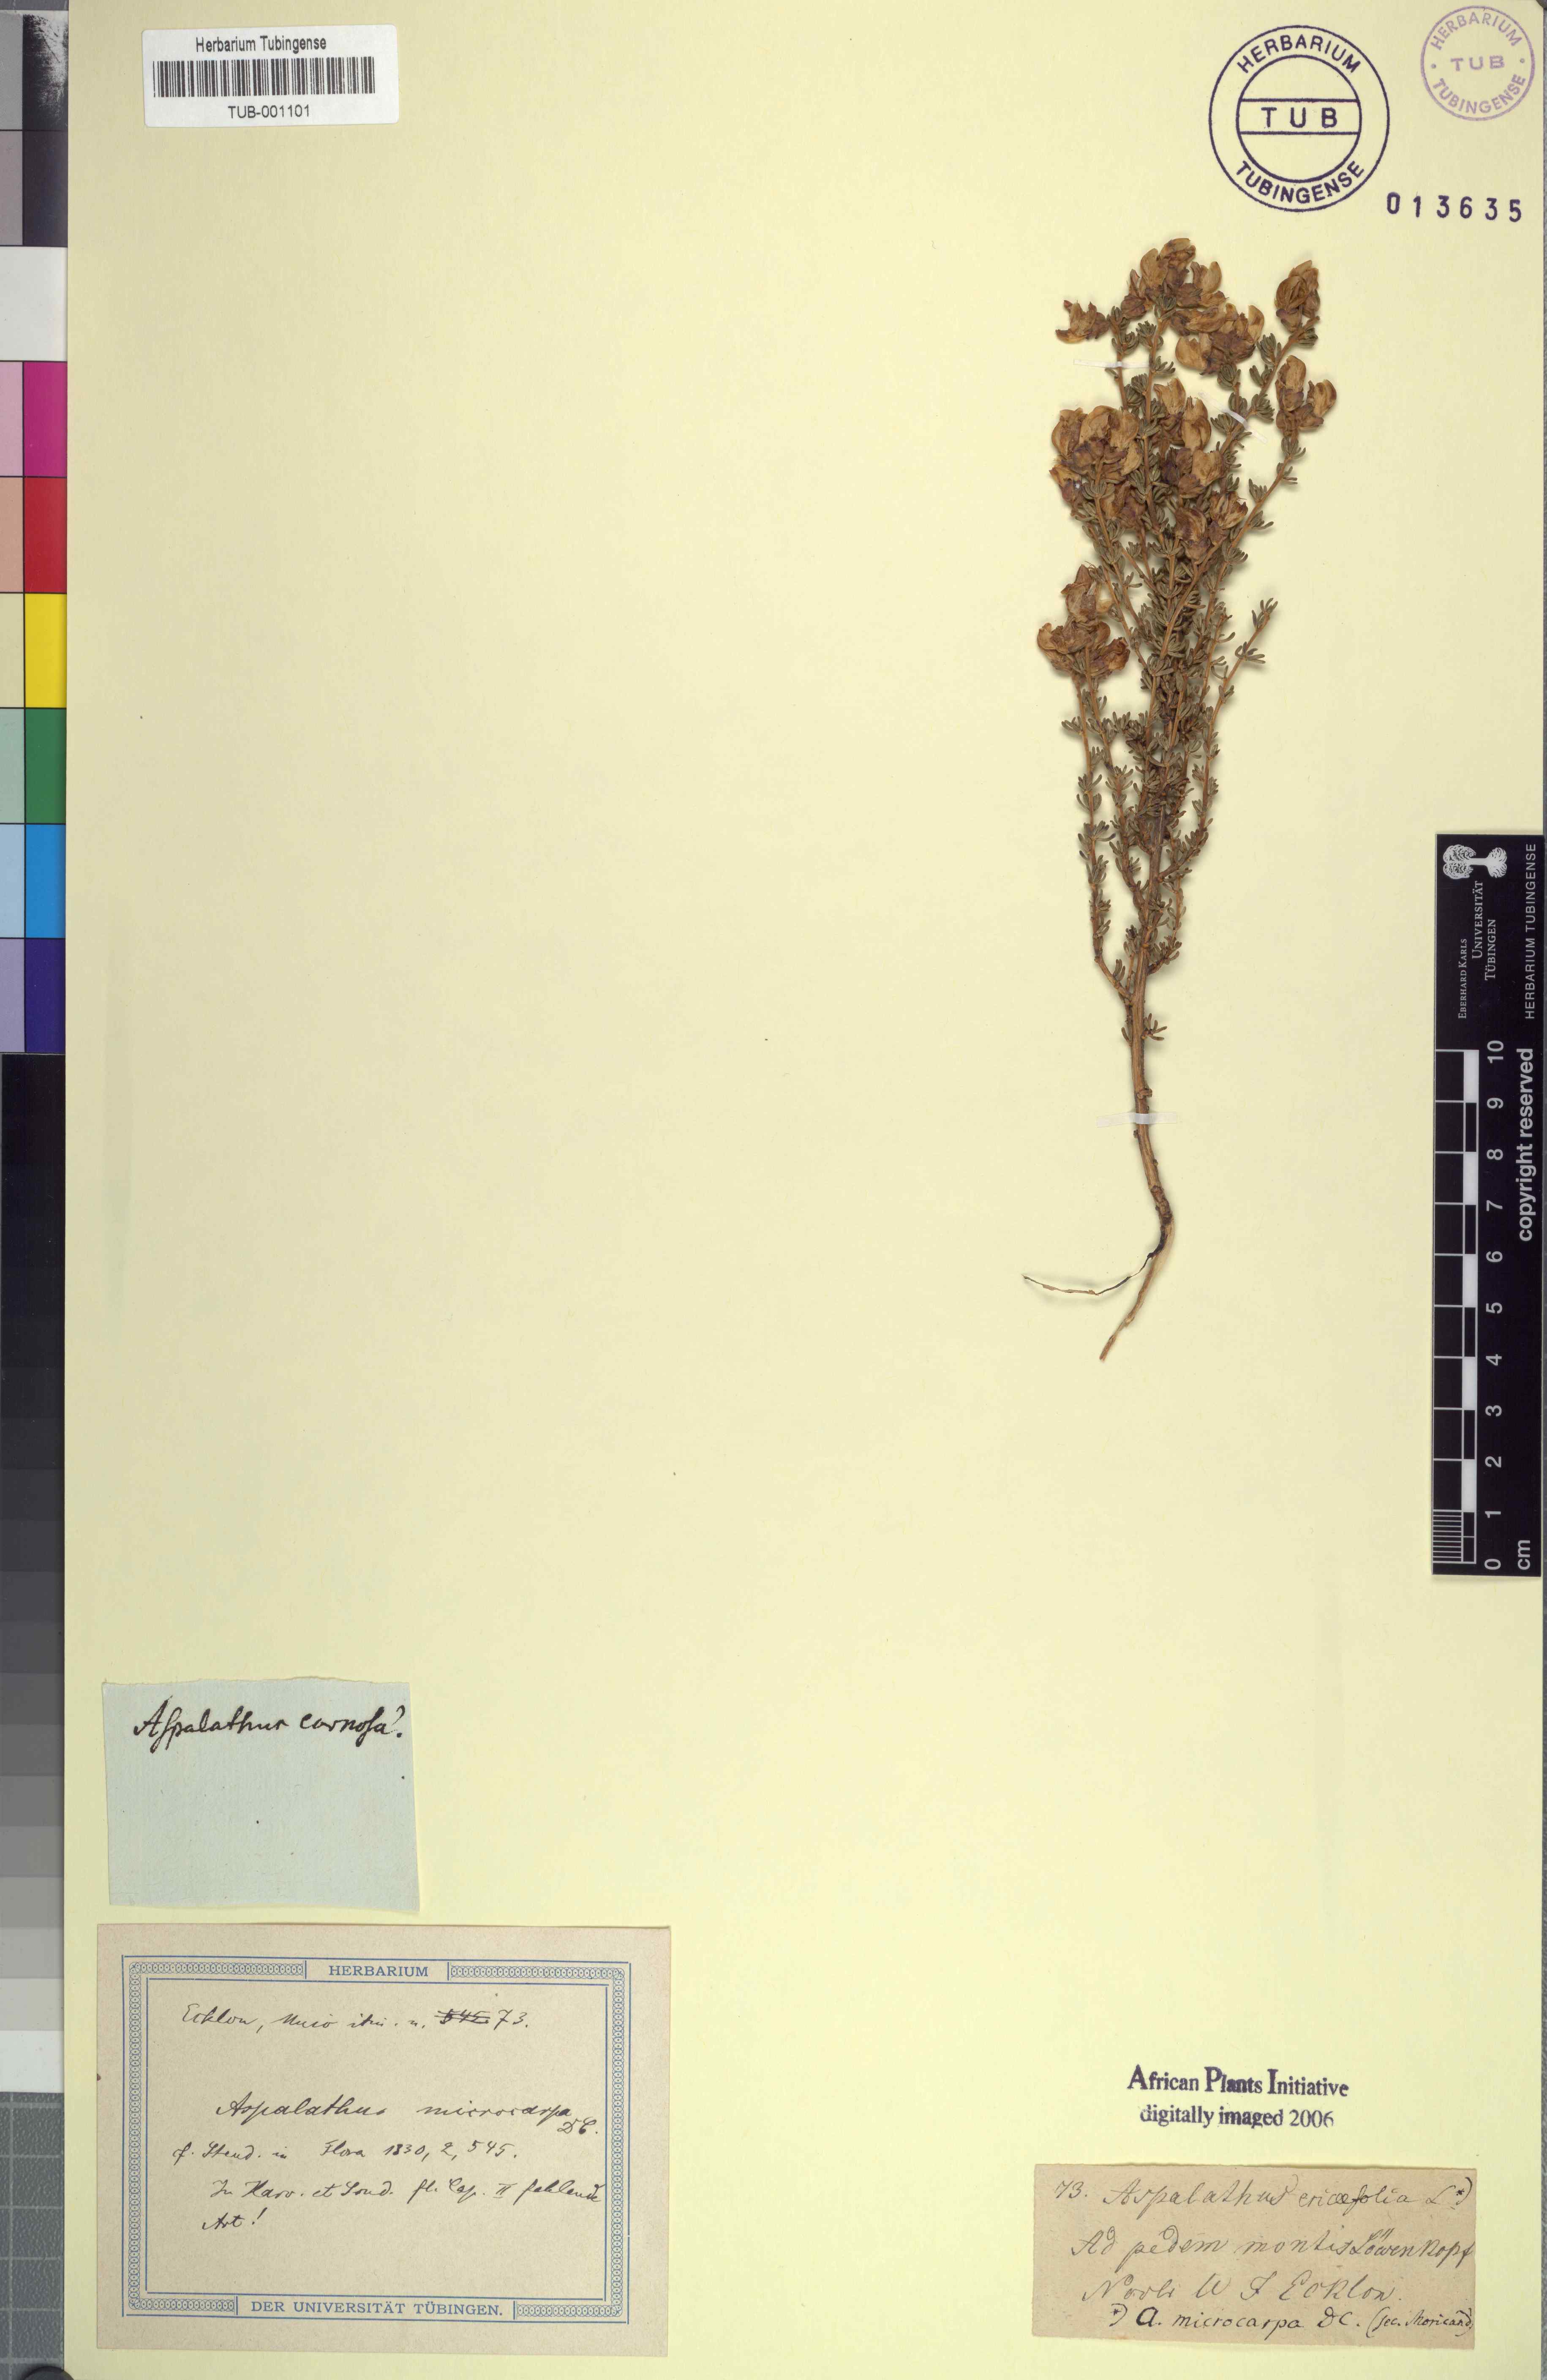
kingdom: Plantae
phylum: Tracheophyta
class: Magnoliopsida
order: Fabales
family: Fabaceae
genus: Aspalathus
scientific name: Aspalathus hispida
